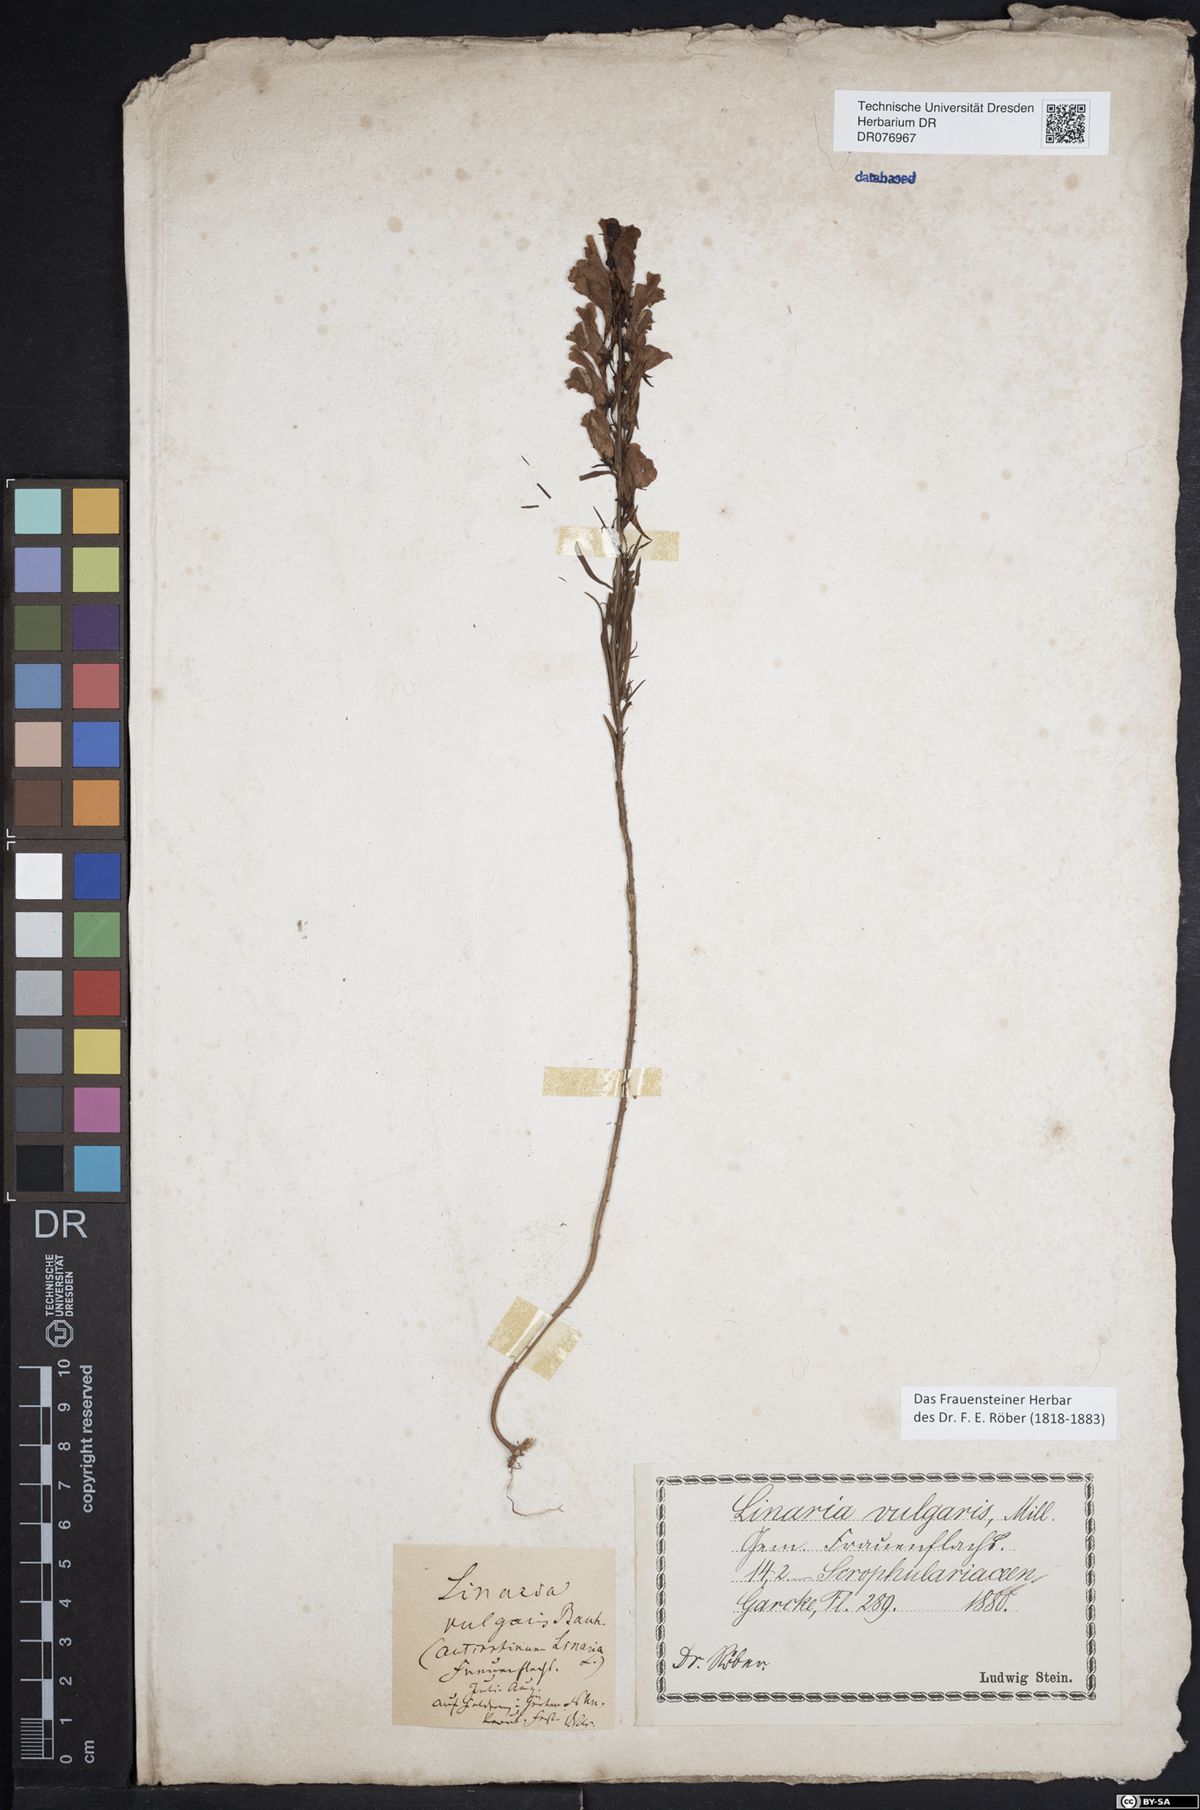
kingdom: Plantae
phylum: Tracheophyta
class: Magnoliopsida
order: Lamiales
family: Plantaginaceae
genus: Linaria
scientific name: Linaria vulgaris
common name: Butter and eggs
